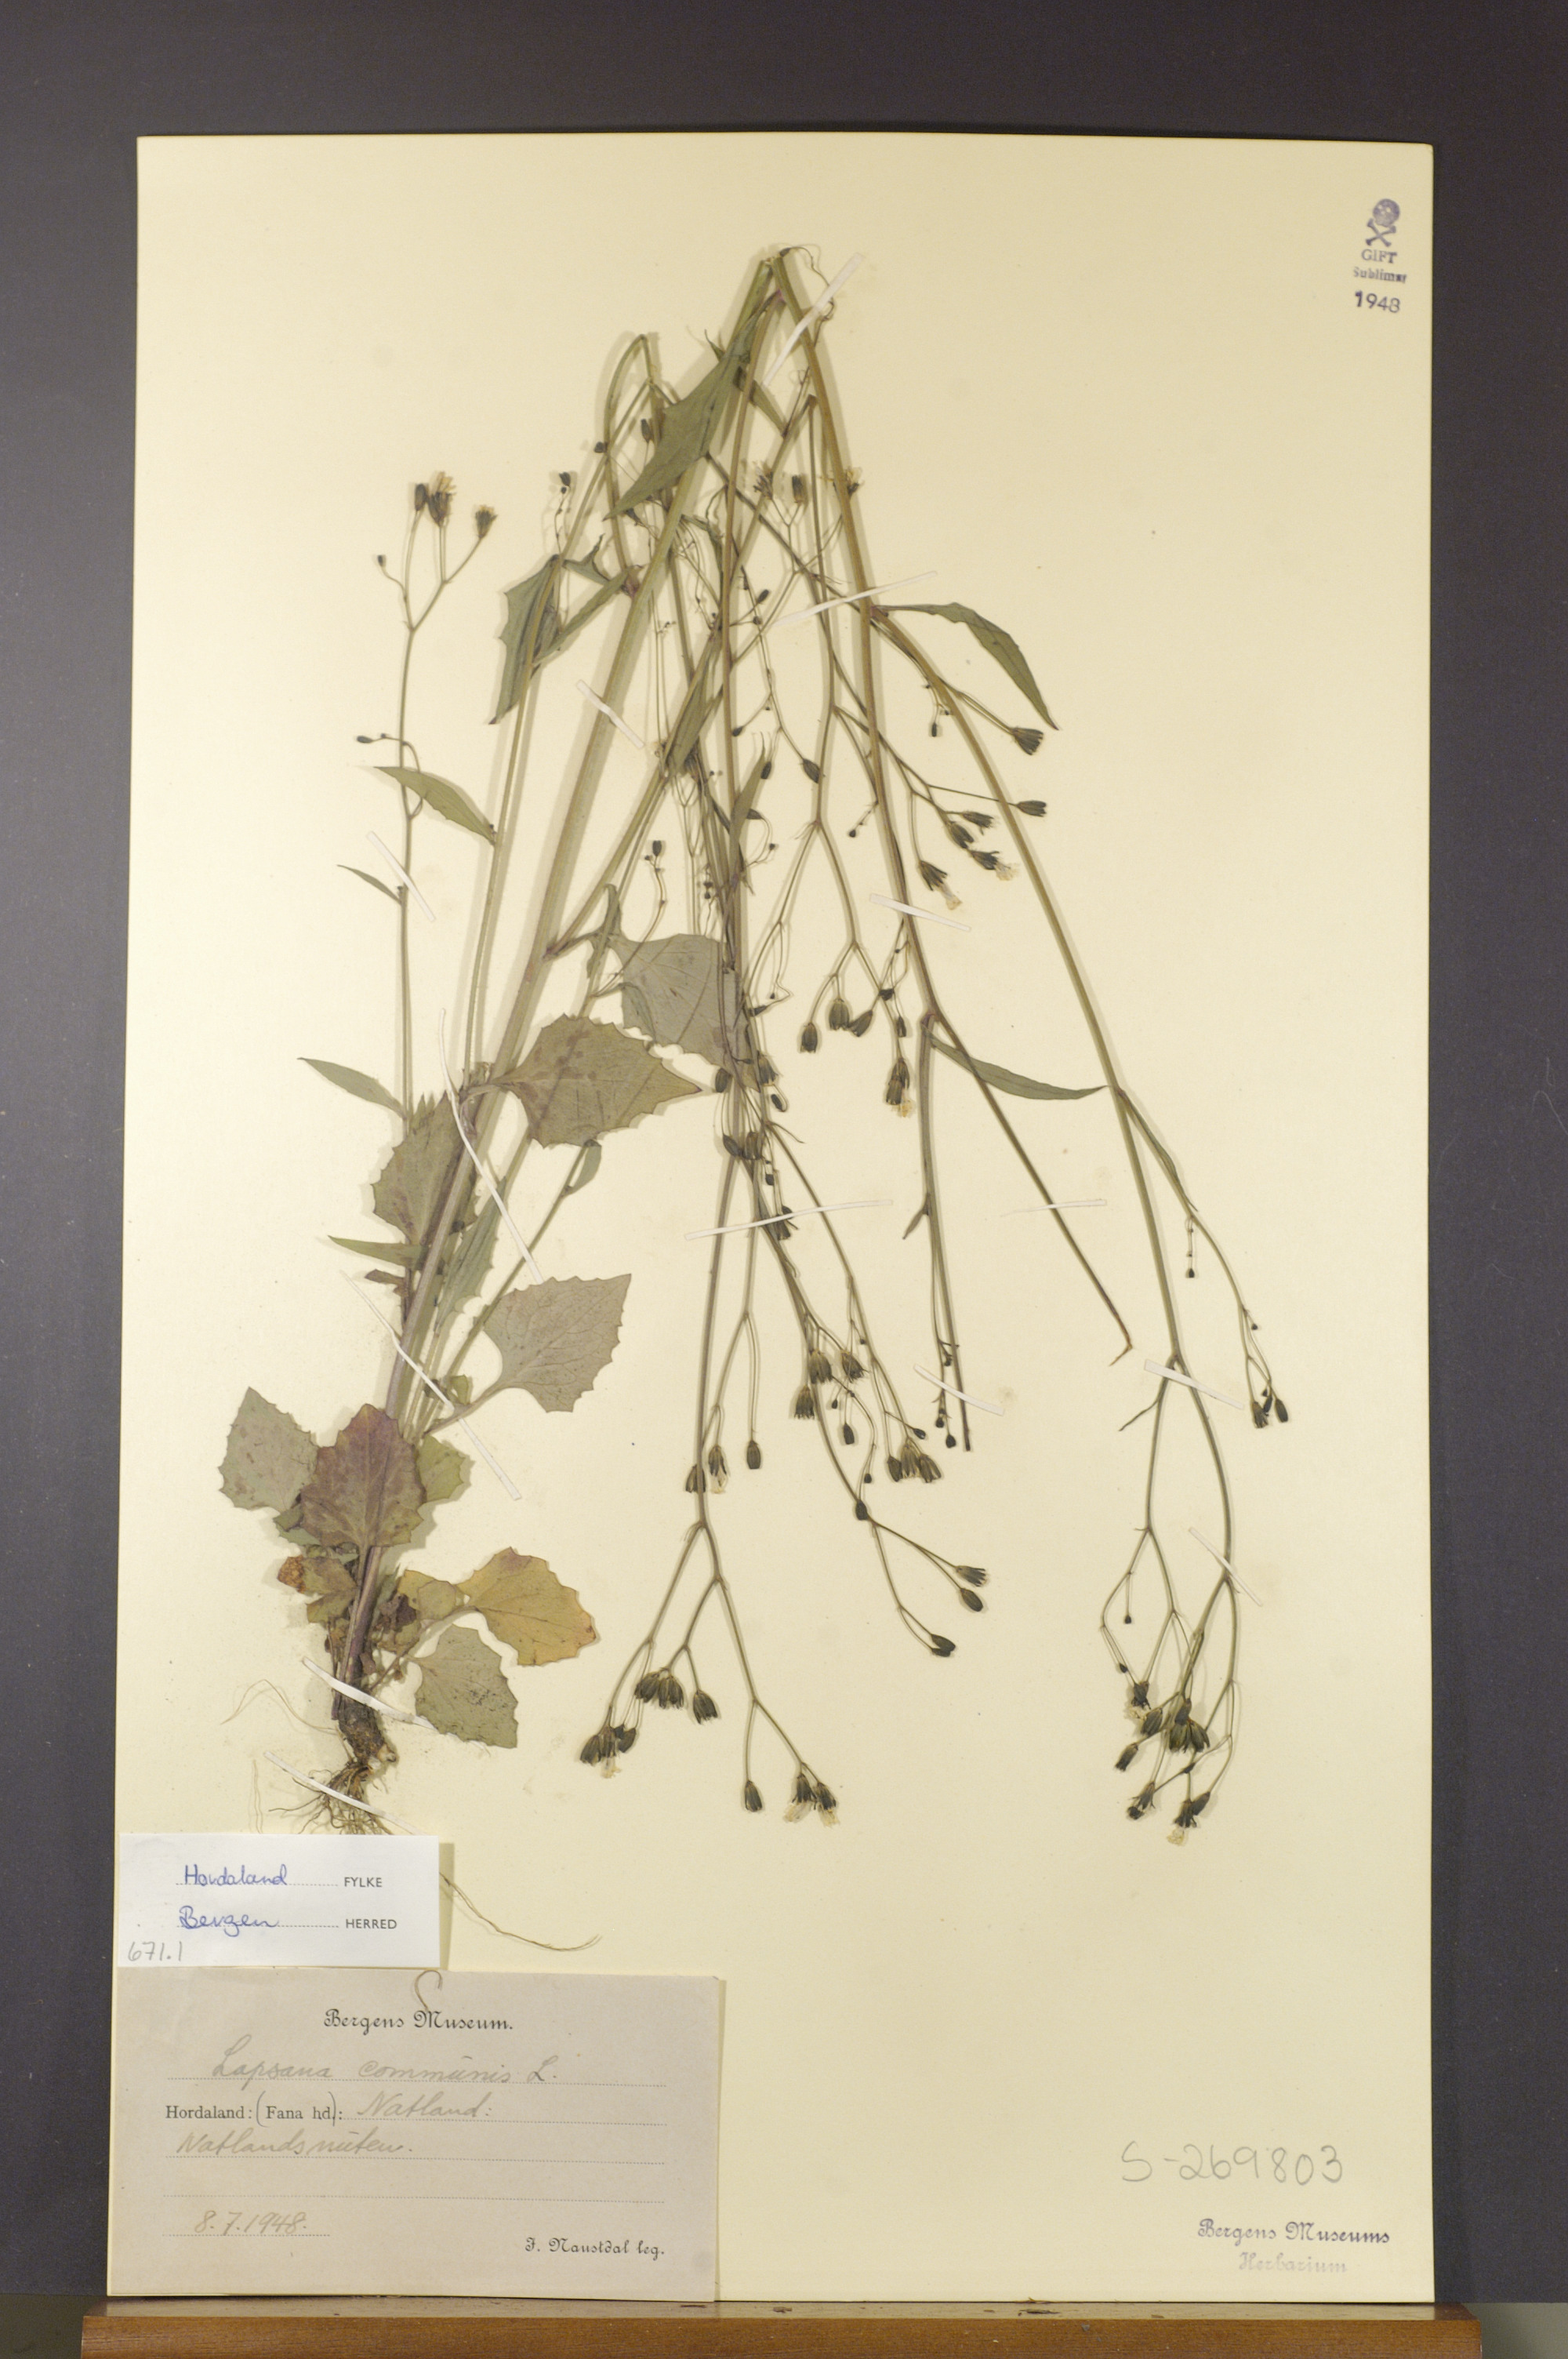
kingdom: Plantae
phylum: Tracheophyta
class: Magnoliopsida
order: Asterales
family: Asteraceae
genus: Lapsana
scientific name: Lapsana communis
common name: Nipplewort
